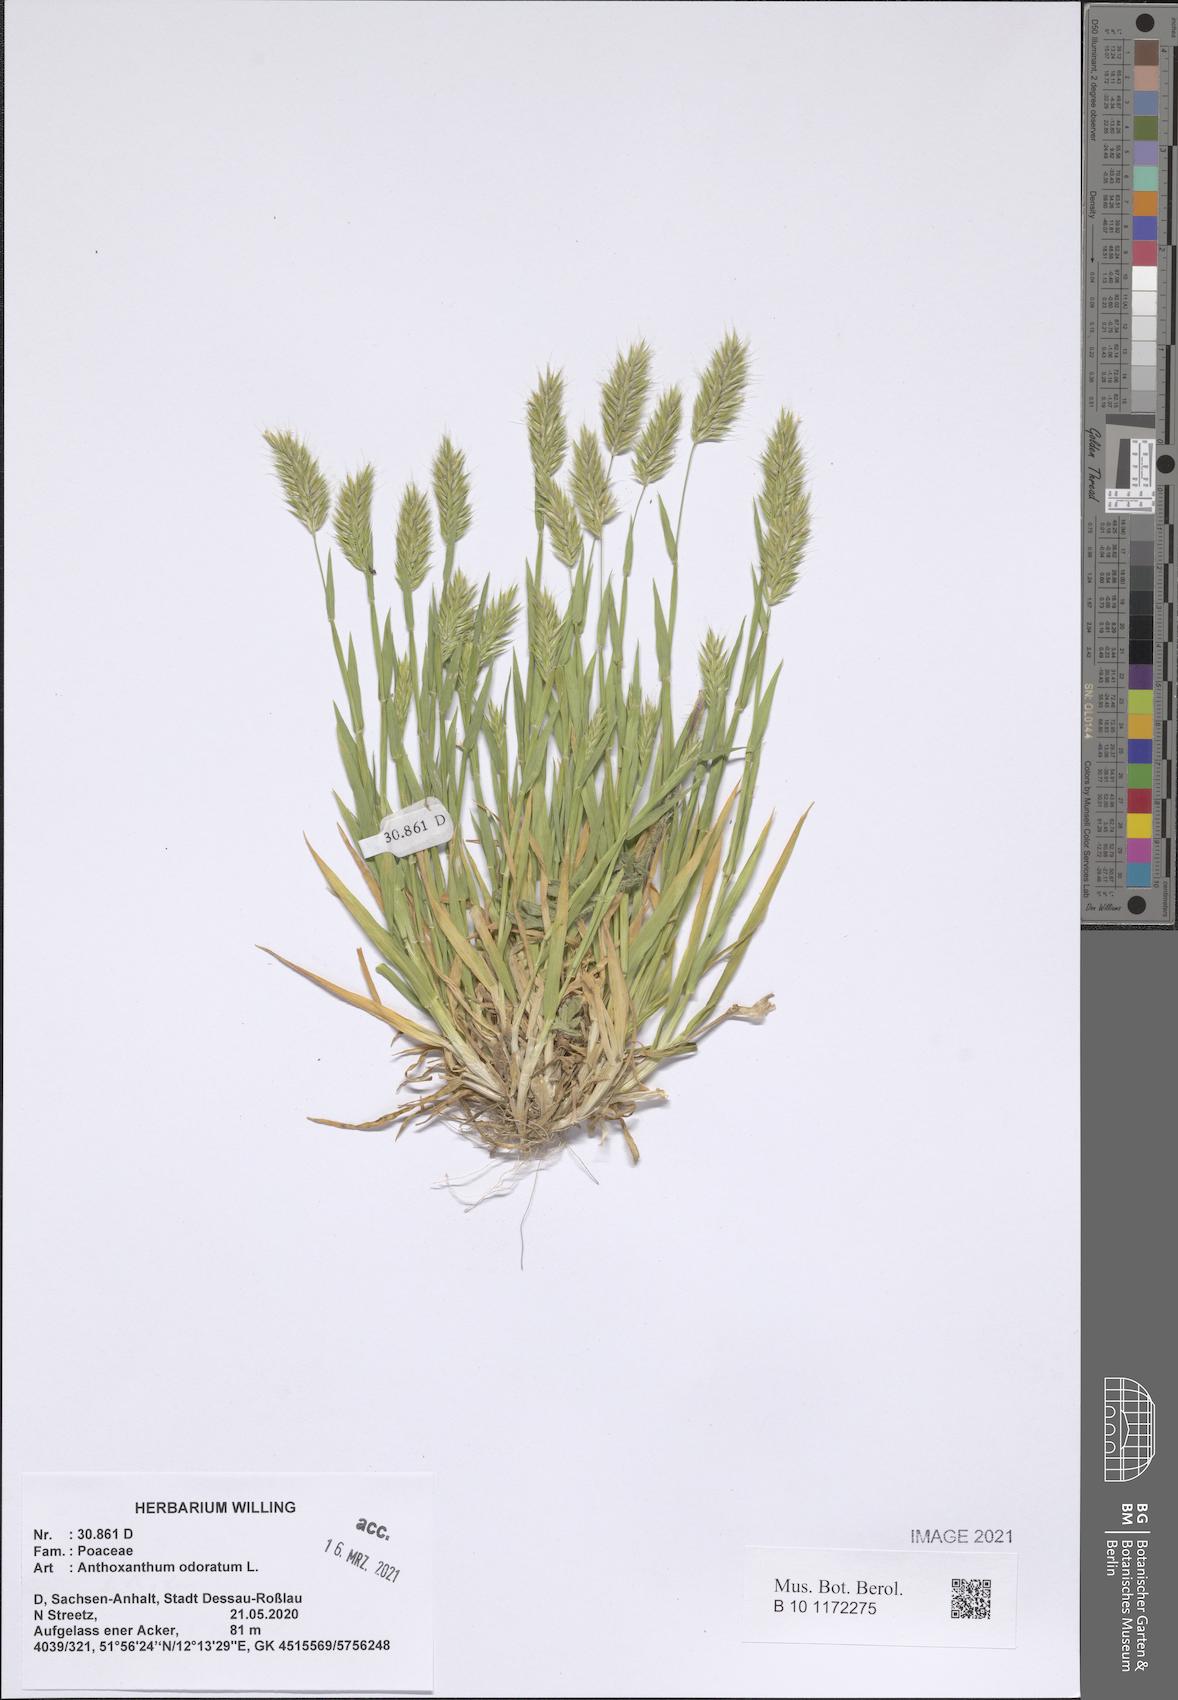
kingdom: Plantae
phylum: Tracheophyta
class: Liliopsida
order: Poales
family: Poaceae
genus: Anthoxanthum
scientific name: Anthoxanthum odoratum
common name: Sweet vernalgrass
